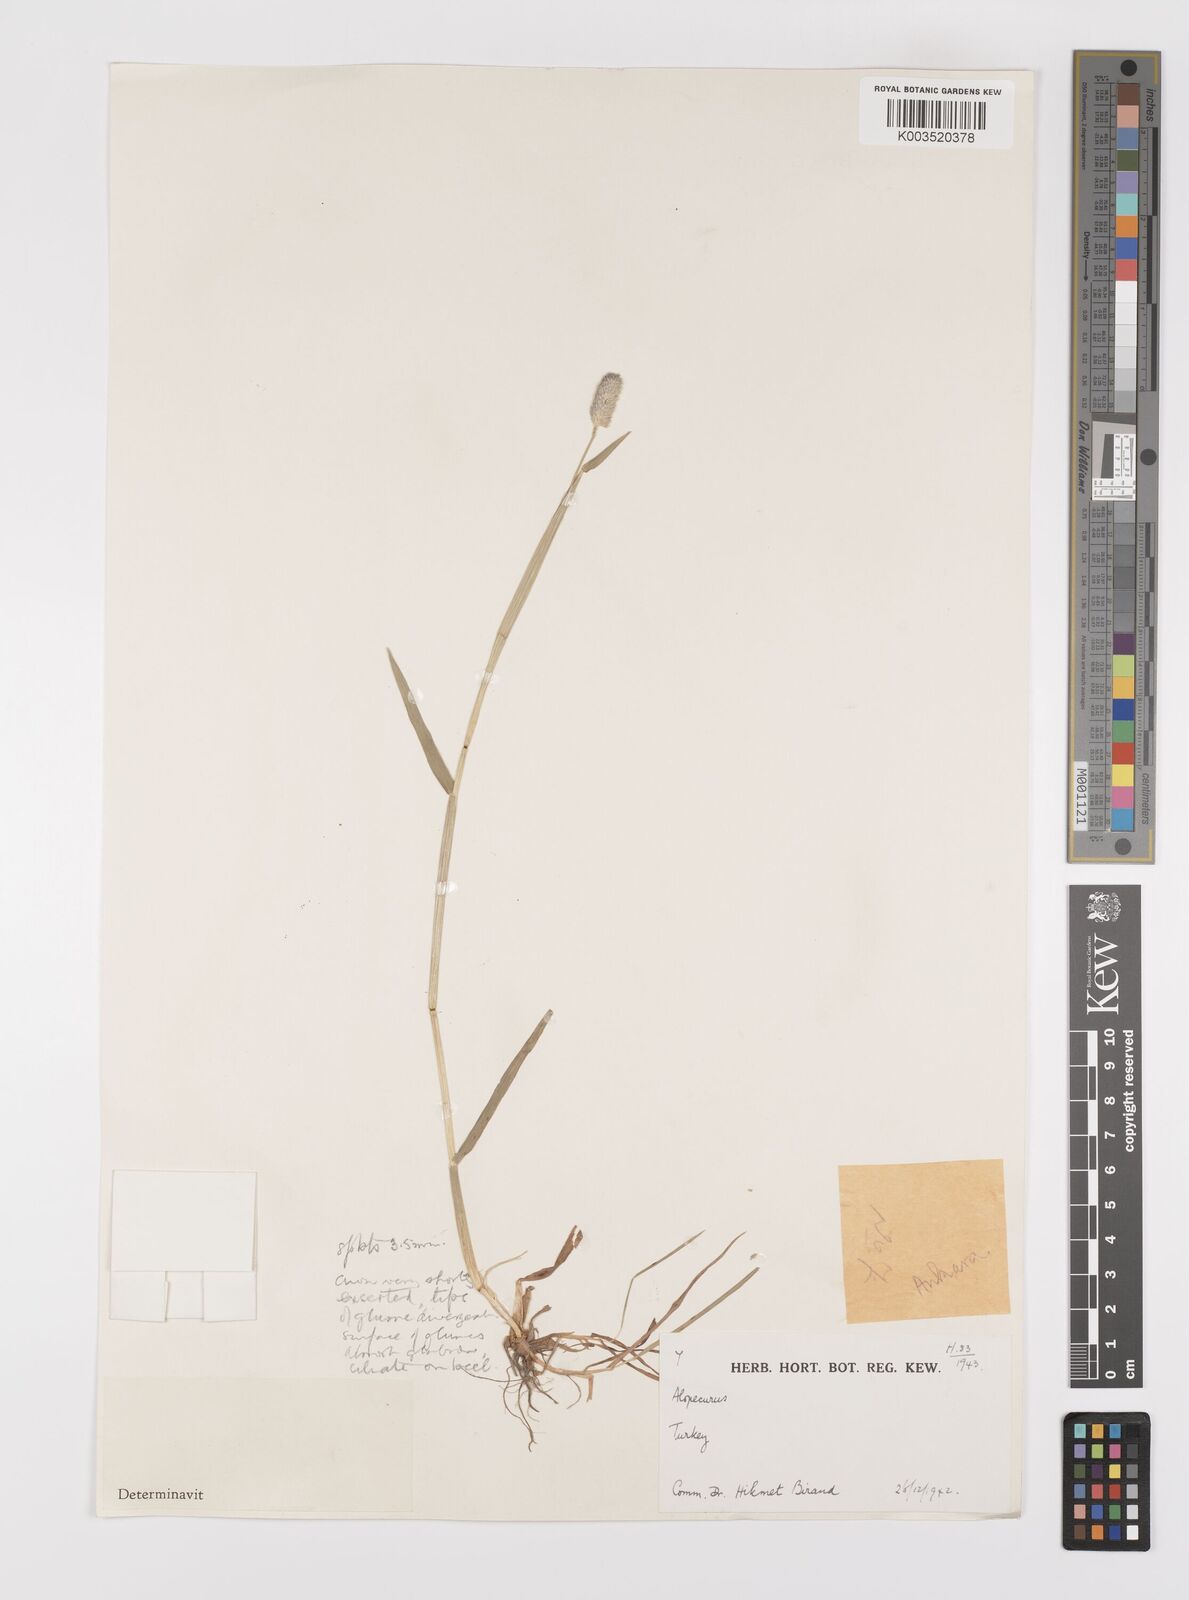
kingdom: Plantae
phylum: Tracheophyta
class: Liliopsida
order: Poales
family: Poaceae
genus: Alopecurus
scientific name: Alopecurus arundinaceus
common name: Creeping meadow foxtail
